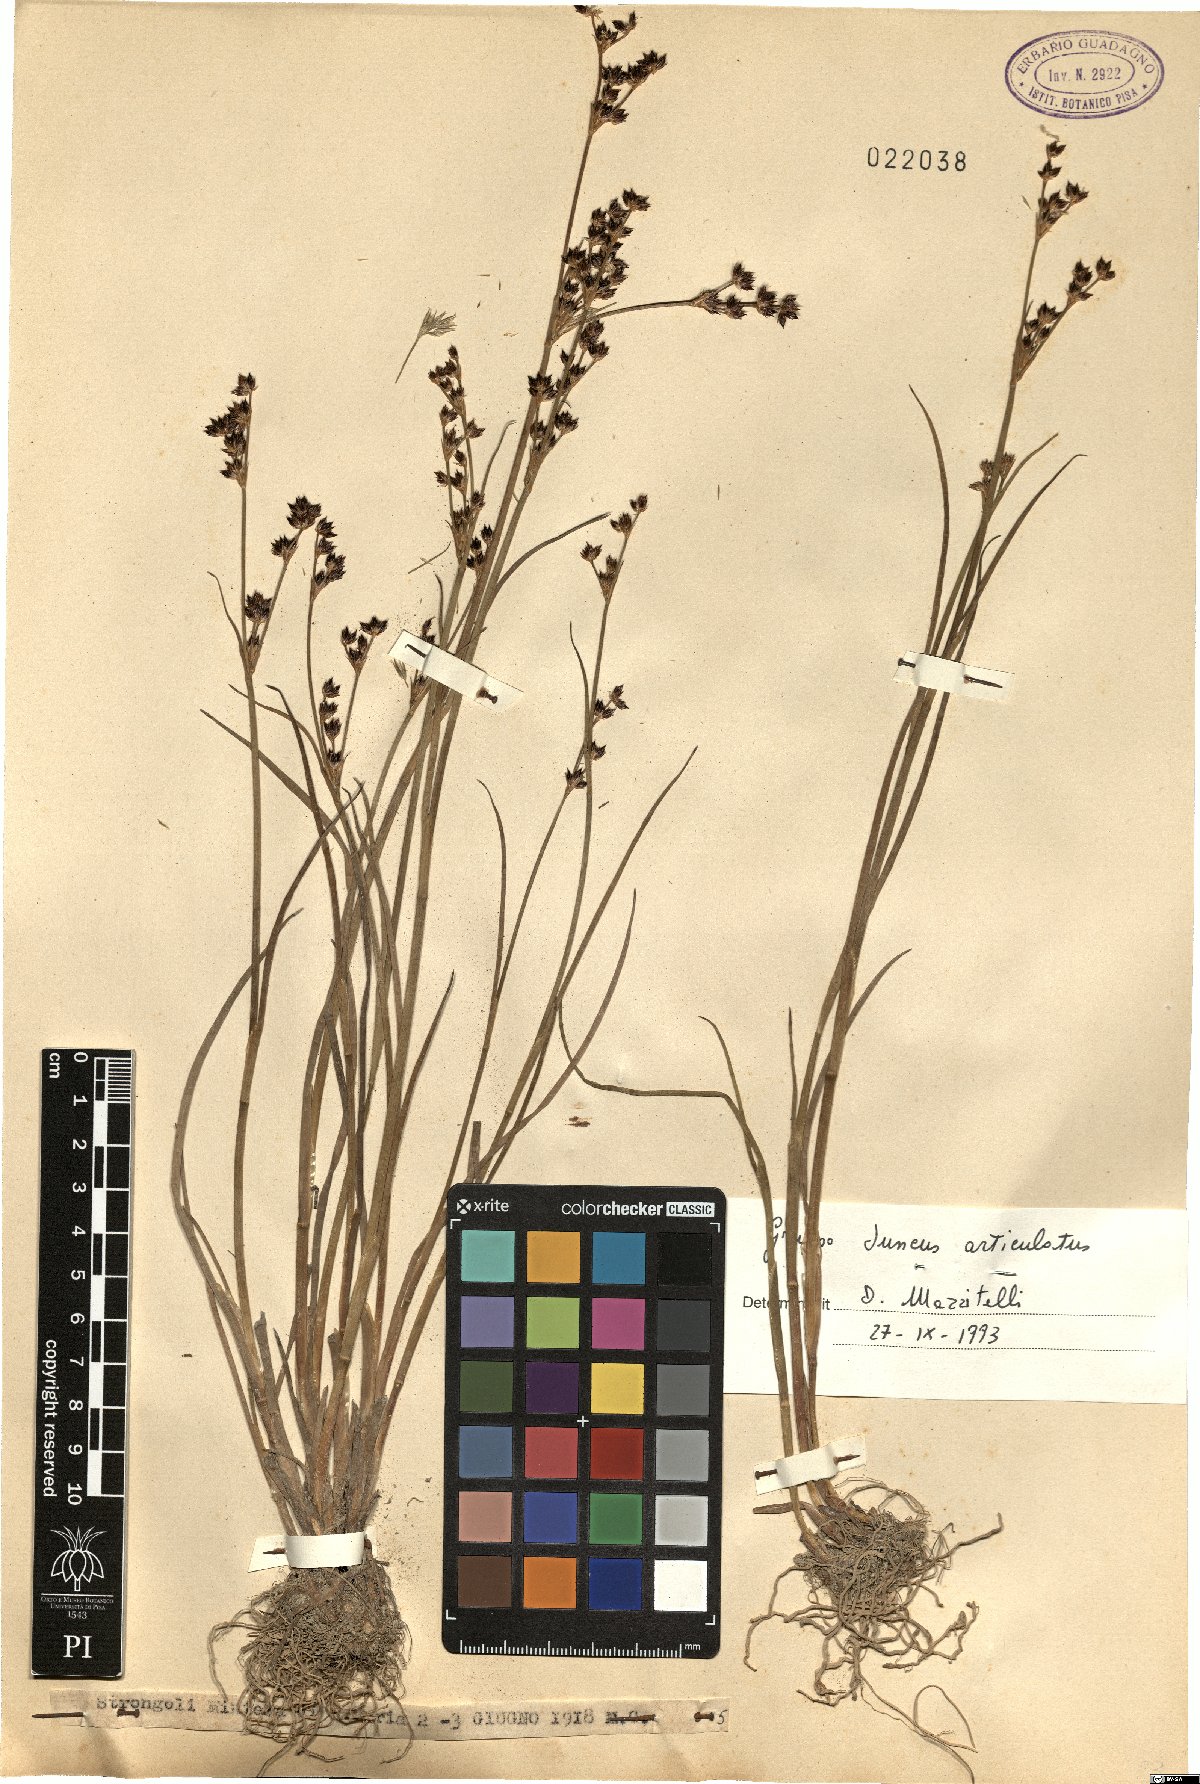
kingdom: Plantae
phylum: Tracheophyta
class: Liliopsida
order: Poales
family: Juncaceae
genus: Juncus
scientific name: Juncus articulatus
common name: Jointed rush
